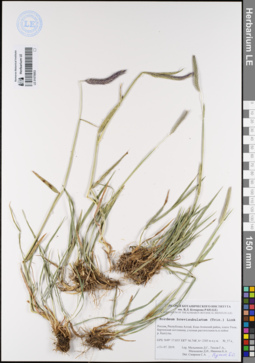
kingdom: Plantae
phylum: Tracheophyta
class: Liliopsida
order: Poales
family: Poaceae
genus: Hordeum
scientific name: Hordeum brevisubulatum
